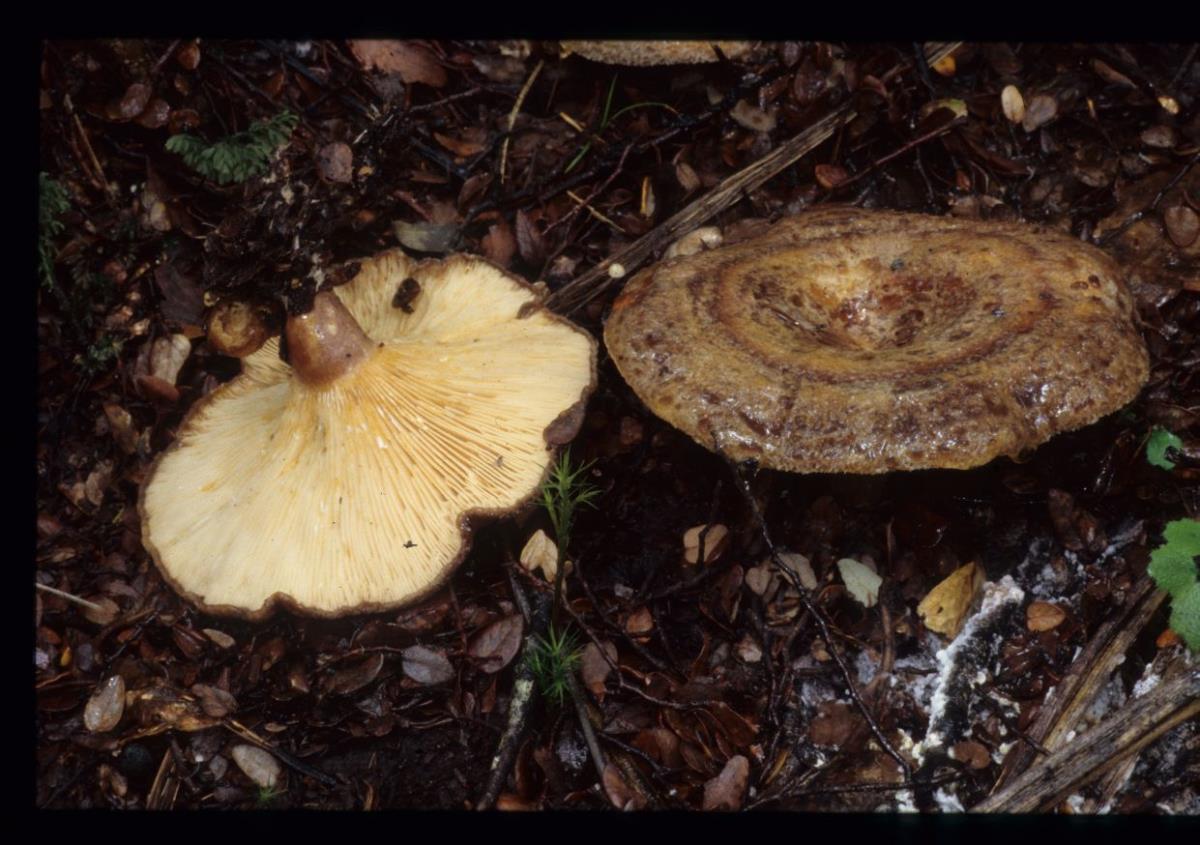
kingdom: Fungi
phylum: Basidiomycota
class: Agaricomycetes
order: Russulales
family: Russulaceae
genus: Lactarius
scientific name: Lactarius tawai
